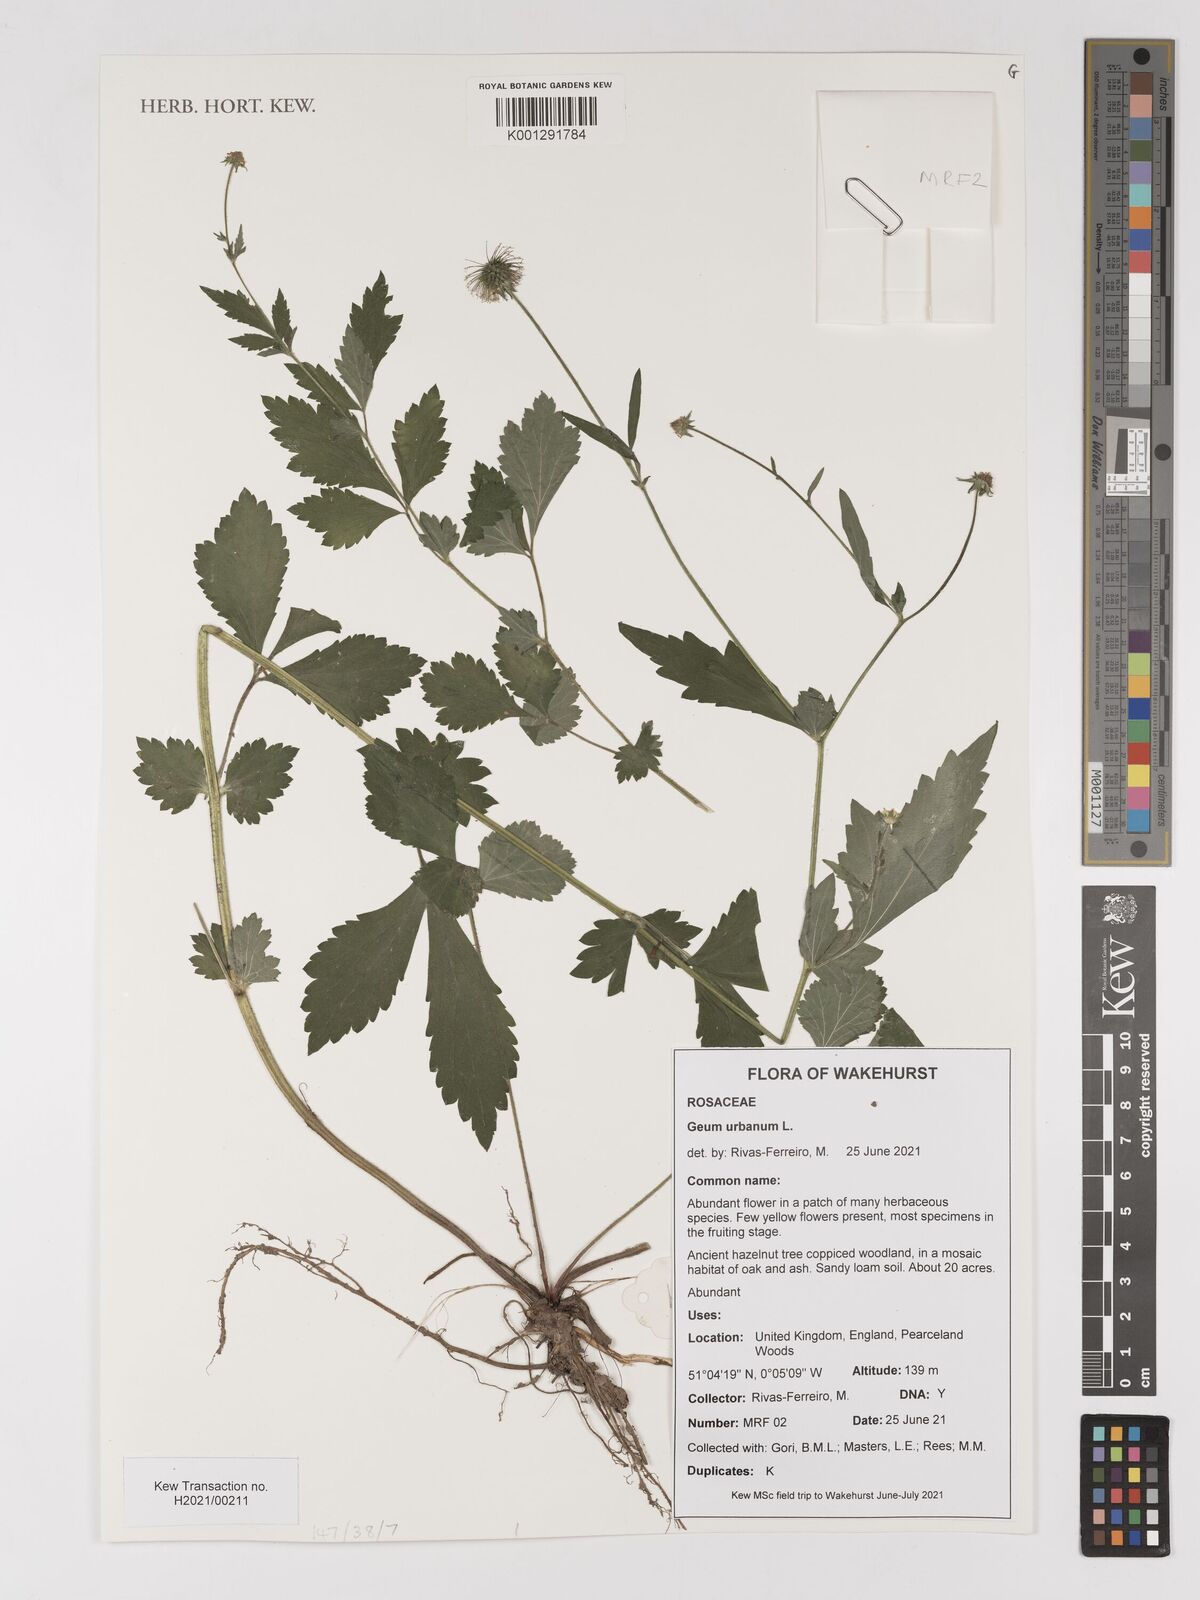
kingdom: Plantae
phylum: Tracheophyta
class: Magnoliopsida
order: Rosales
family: Rosaceae
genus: Geum
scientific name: Geum urbanum
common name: Wood avens
